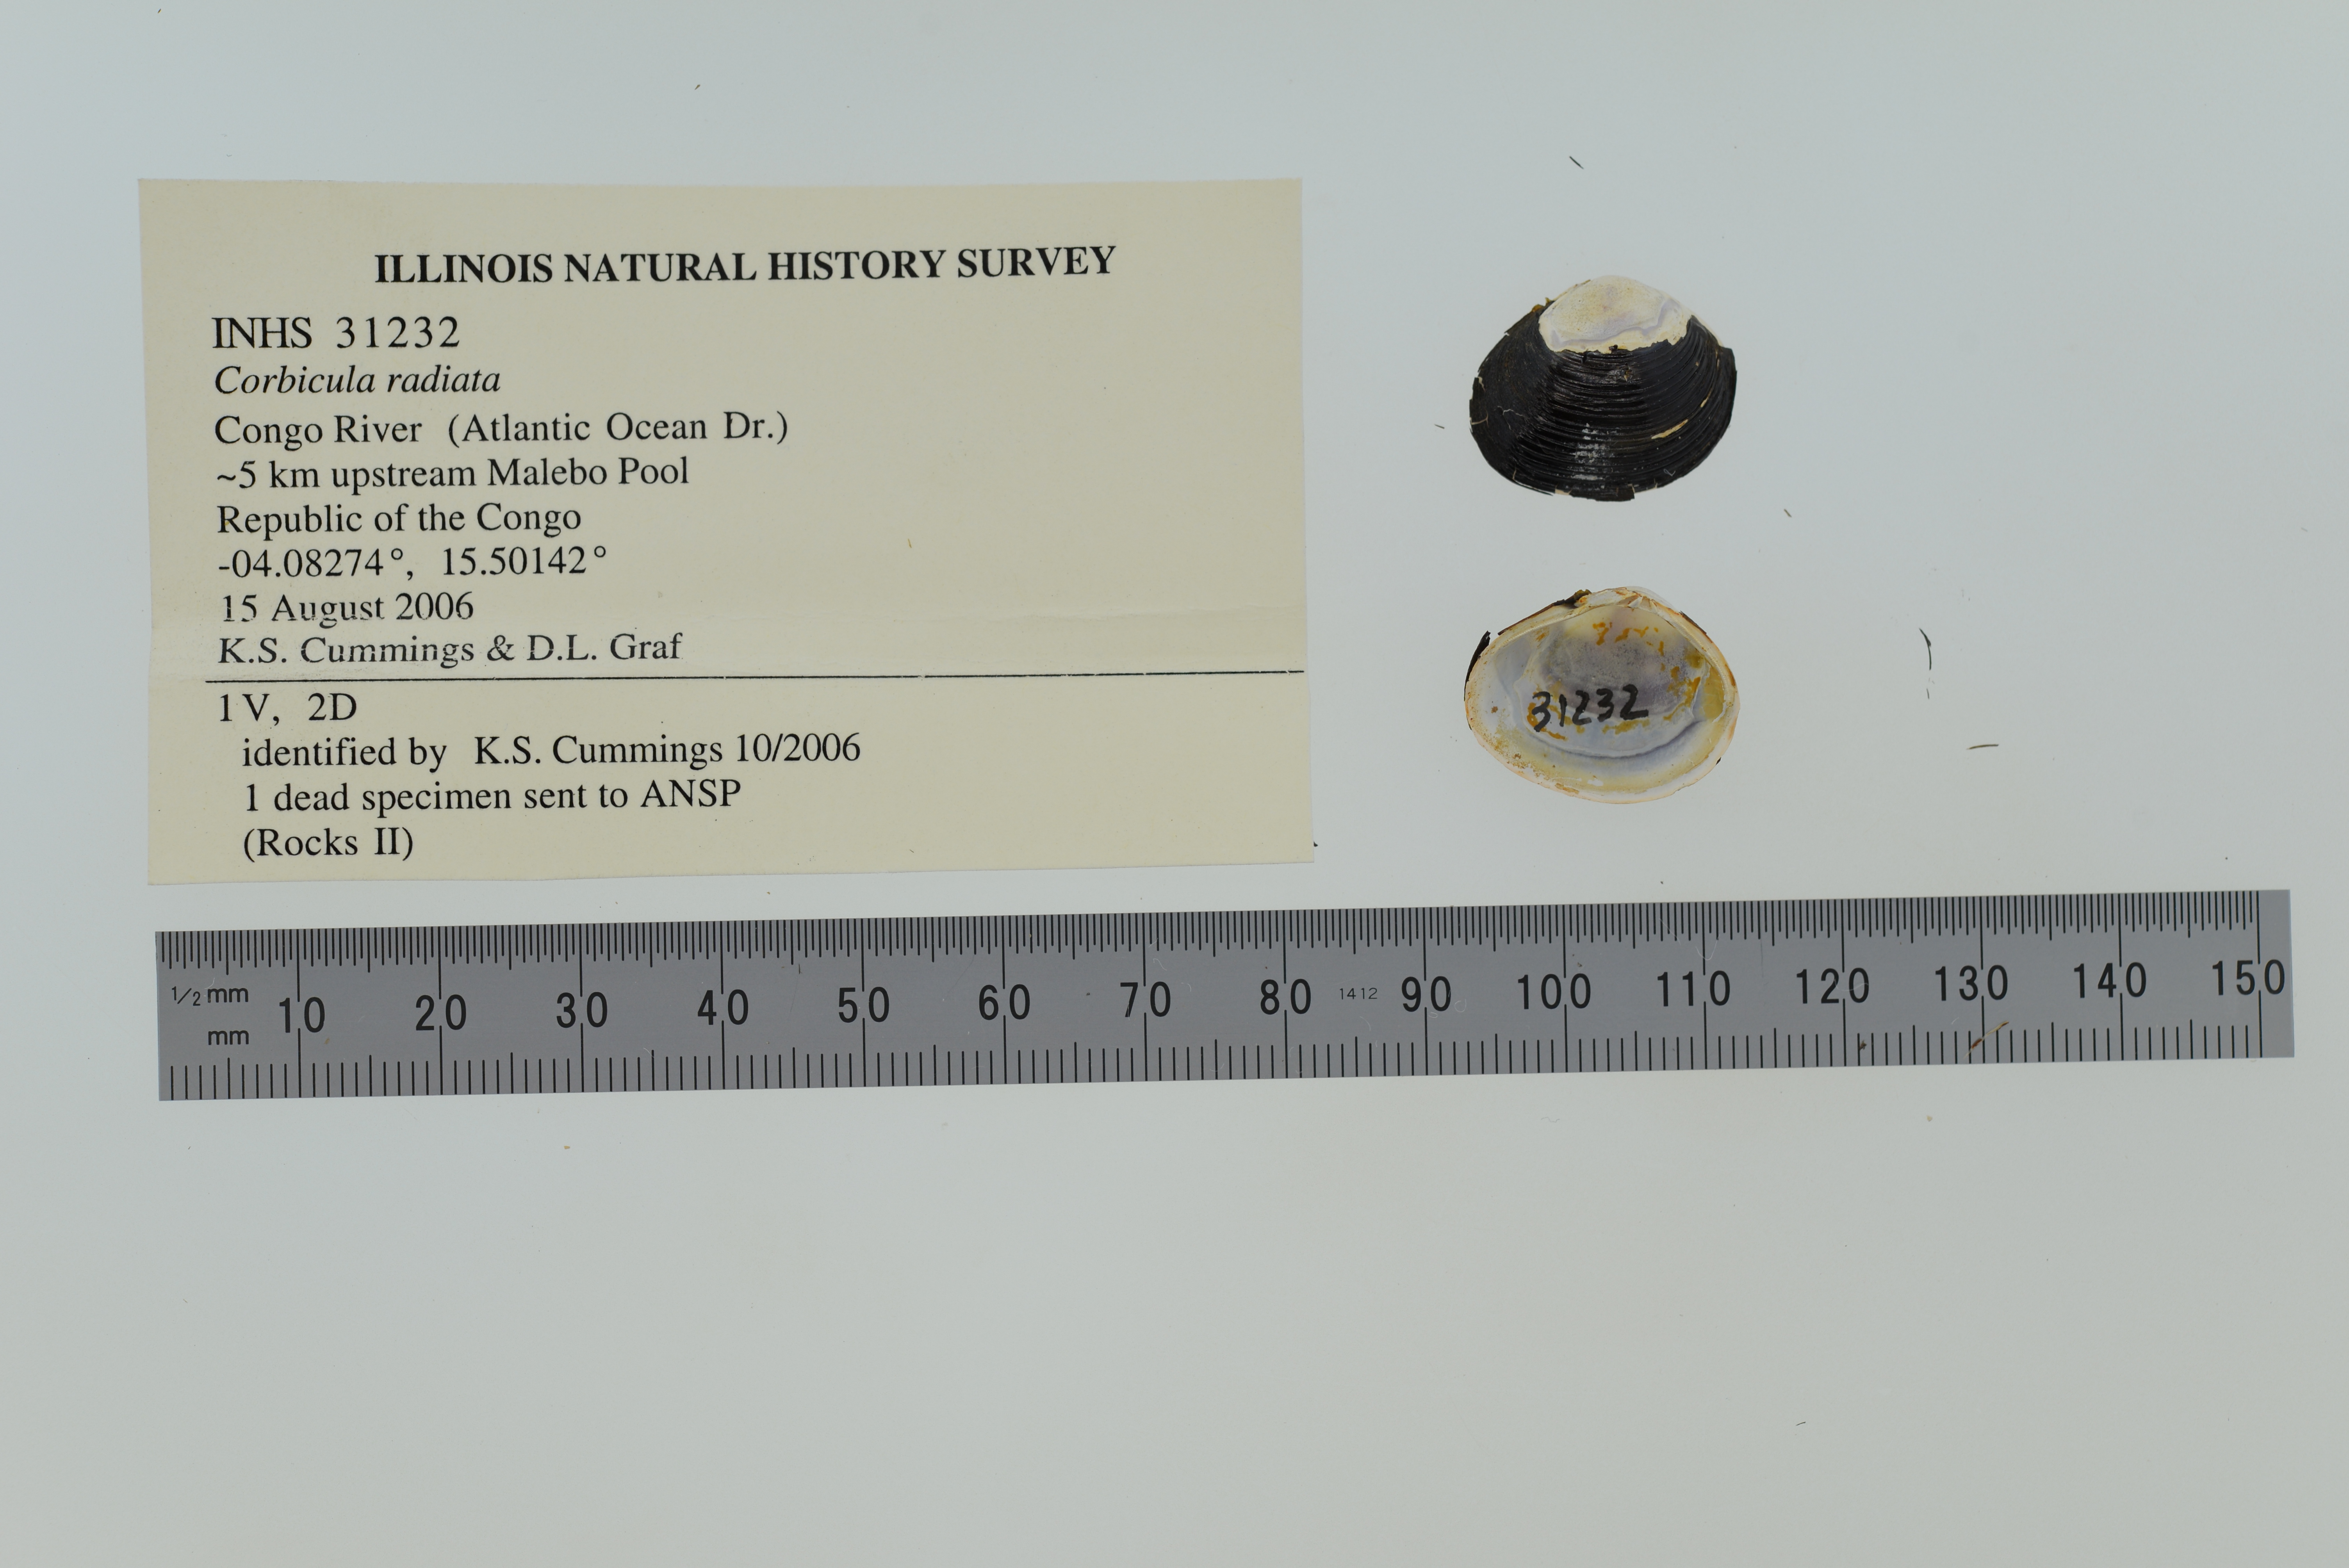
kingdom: Animalia
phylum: Mollusca
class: Bivalvia
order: Venerida
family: Cyrenidae
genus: Corbicula
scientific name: Corbicula africana
